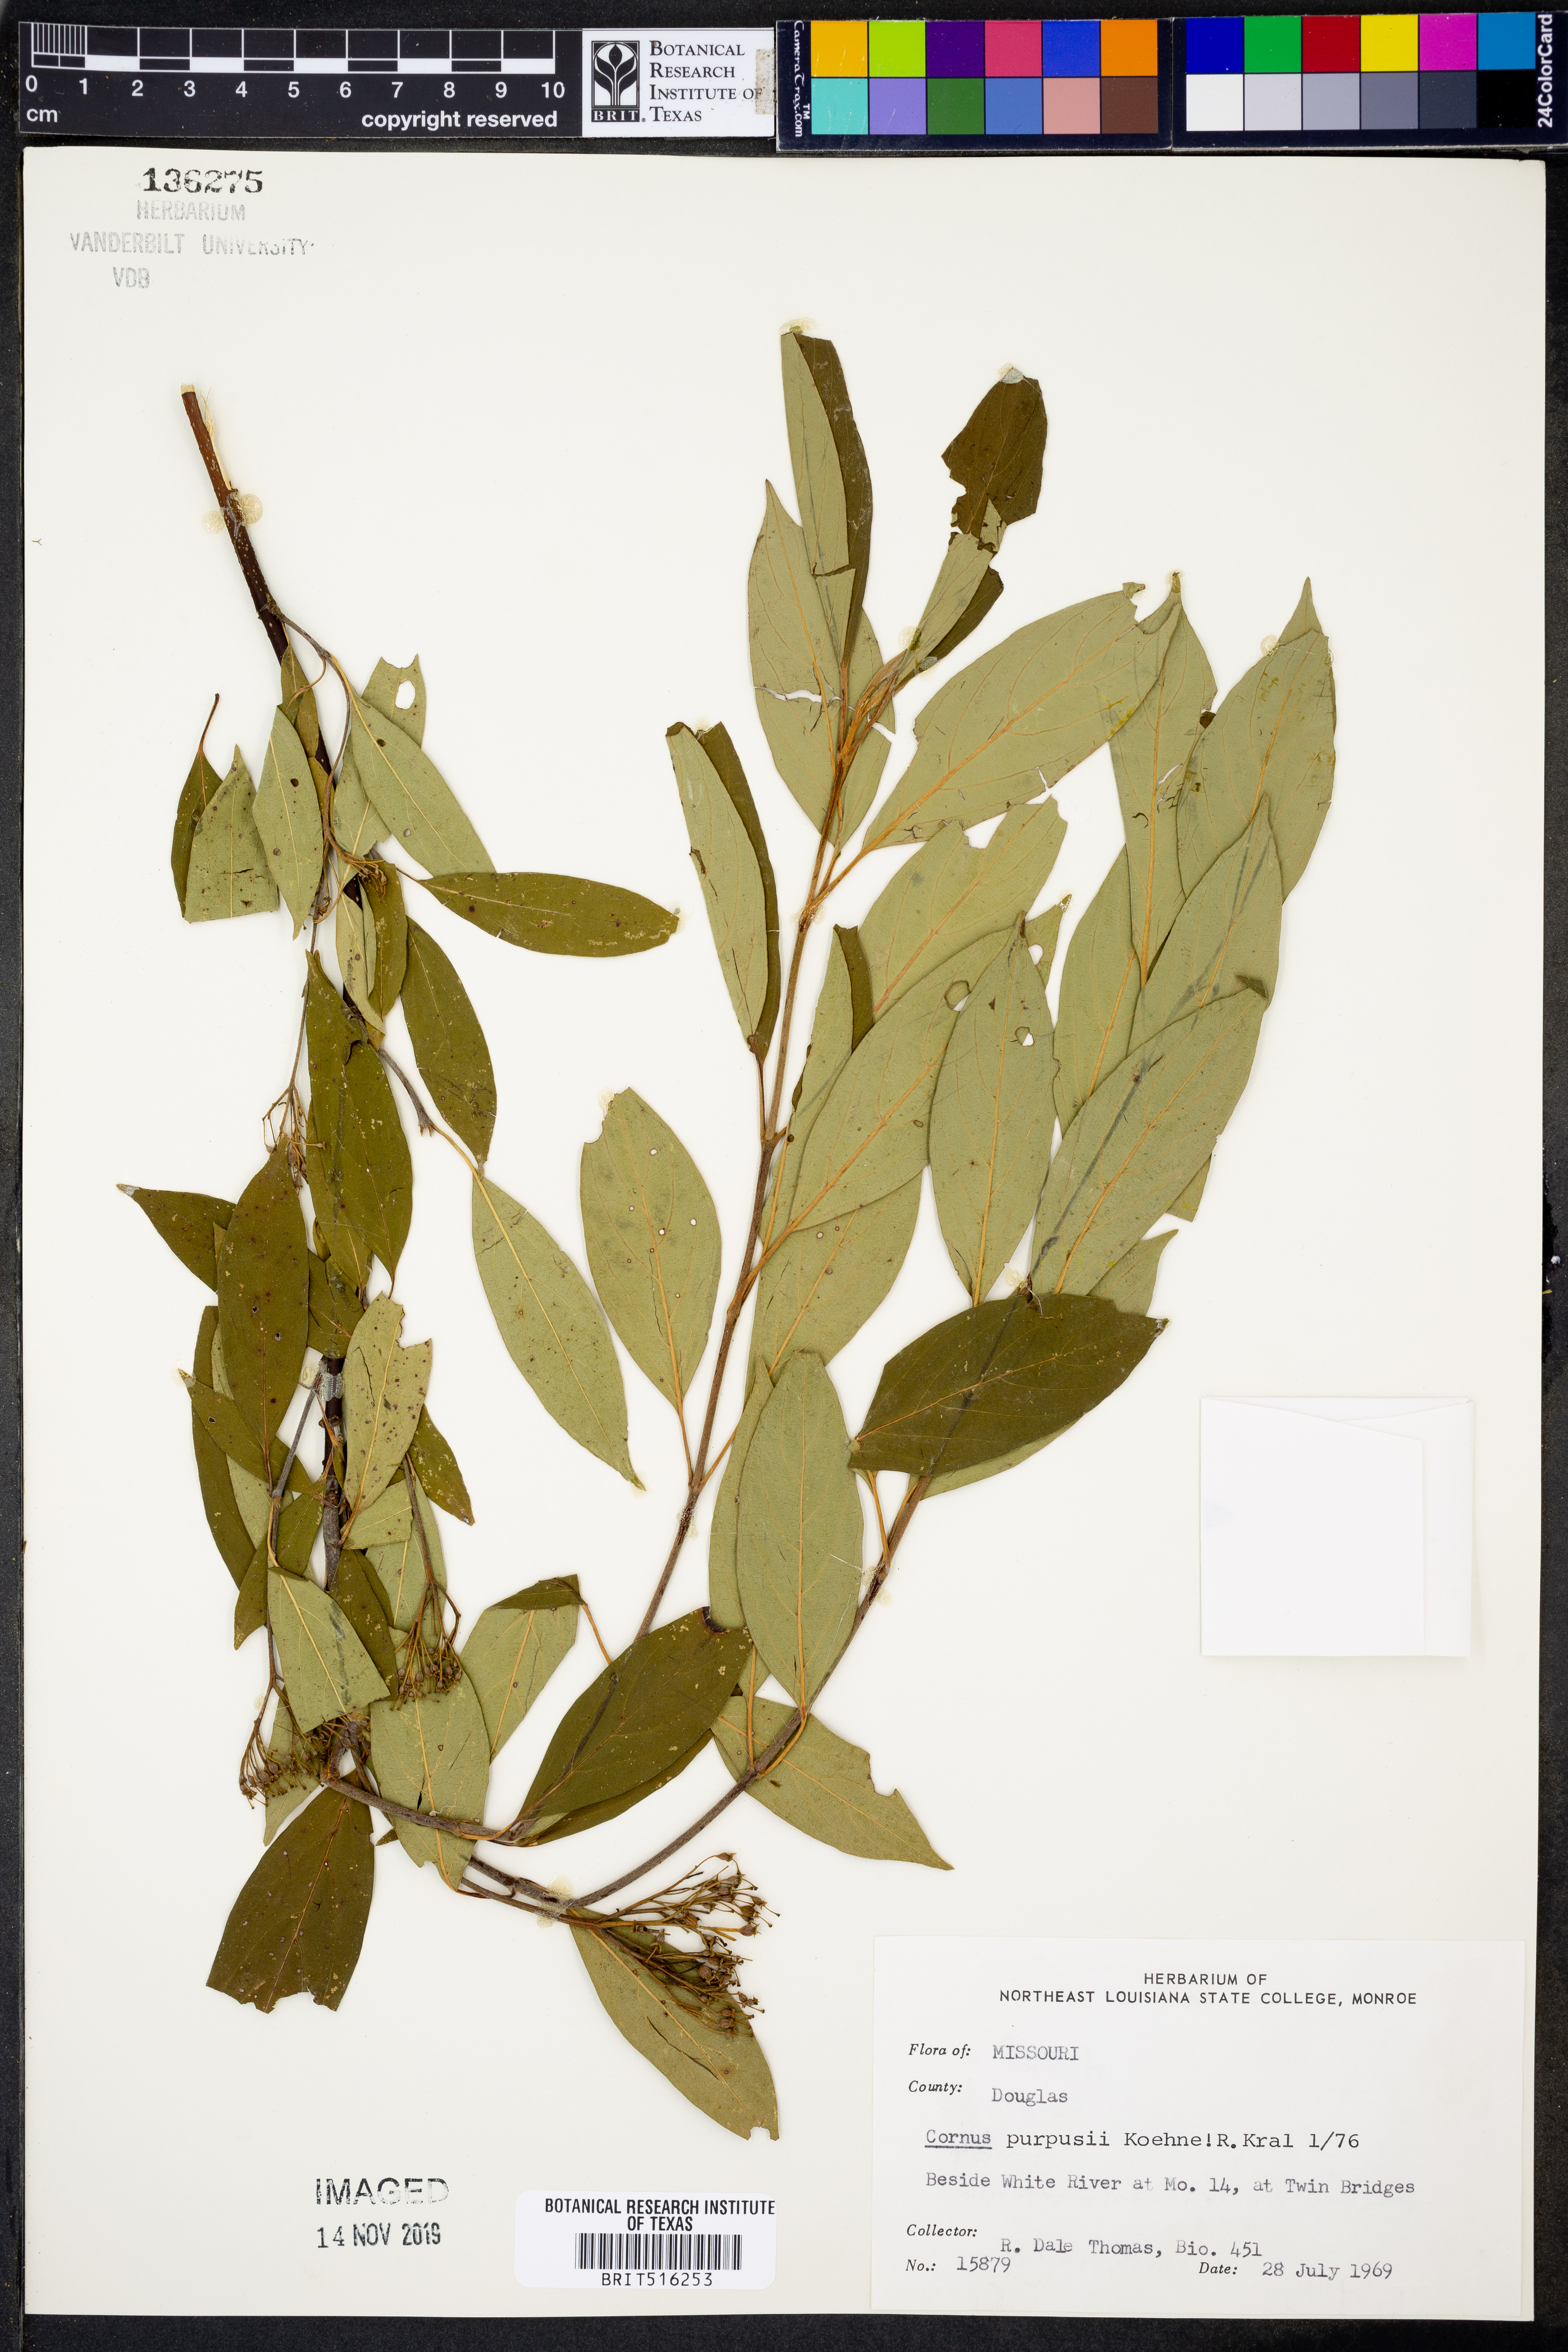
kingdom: Plantae
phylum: Tracheophyta
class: Magnoliopsida
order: Cornales
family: Cornaceae
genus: Cornus
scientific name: Cornus obliqua
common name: Pale dogwood
